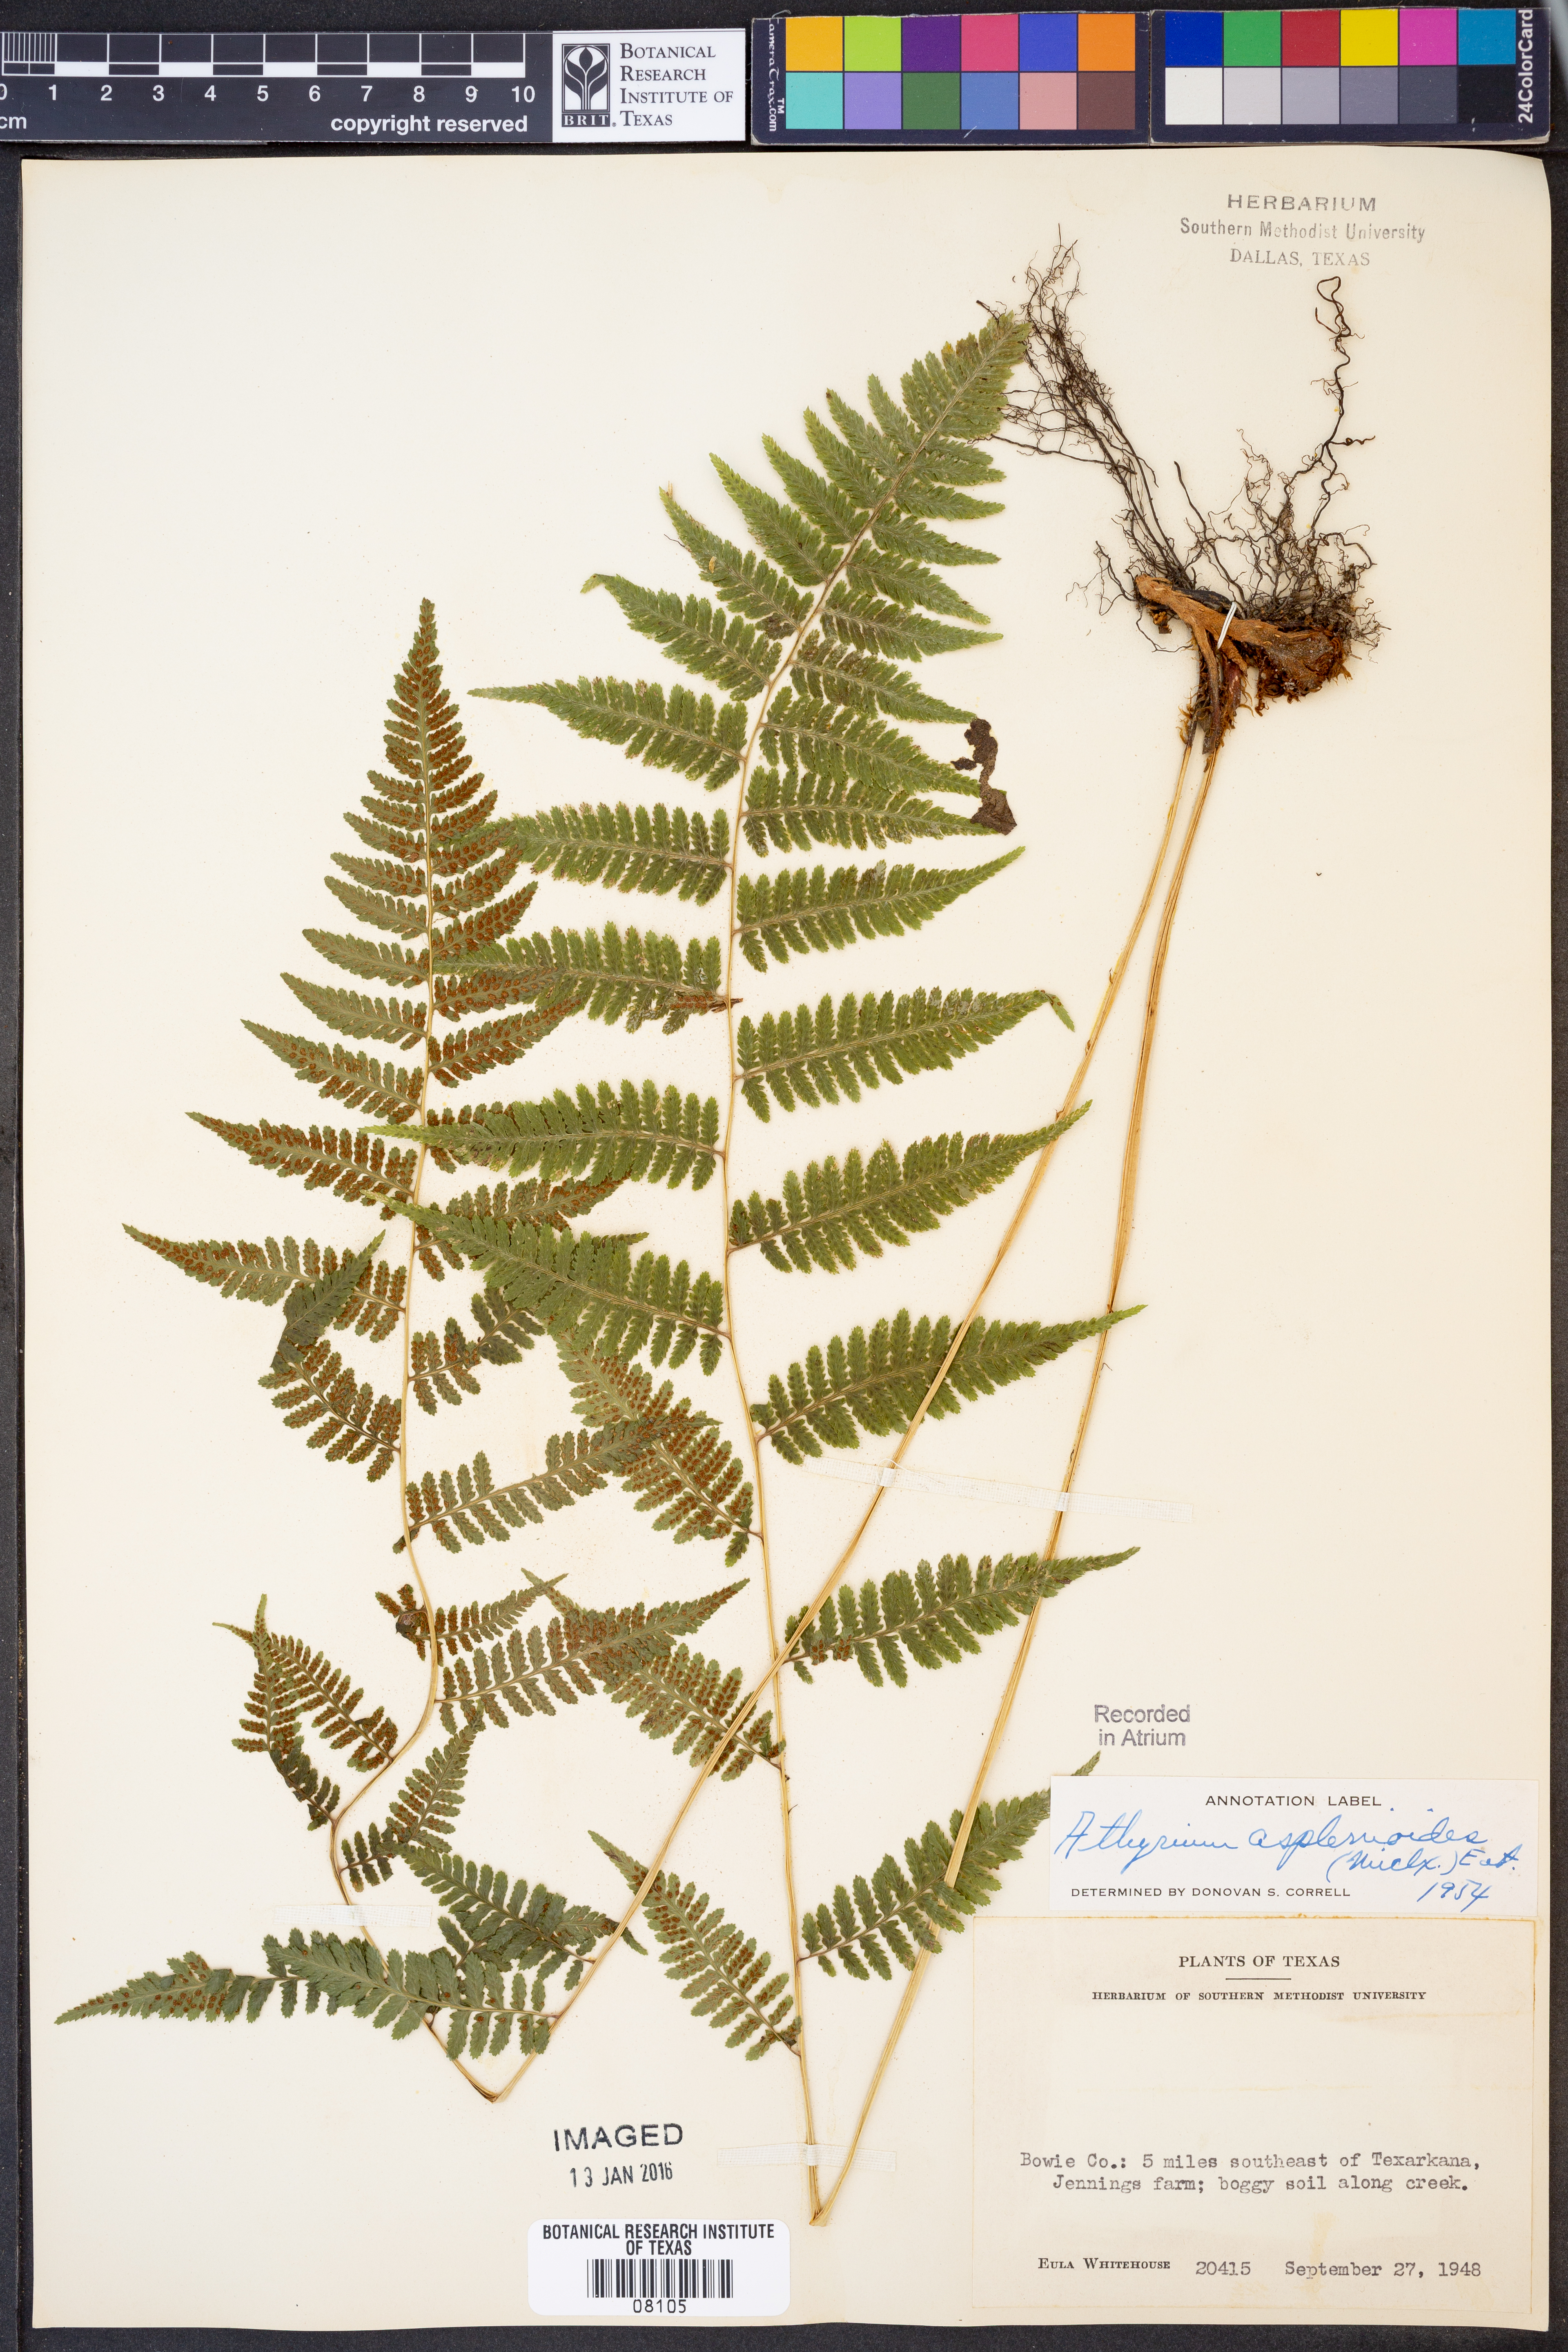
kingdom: Plantae
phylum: Tracheophyta
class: Polypodiopsida
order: Polypodiales
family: Athyriaceae
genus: Athyrium
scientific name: Athyrium asplenioides
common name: Southern lady fern
